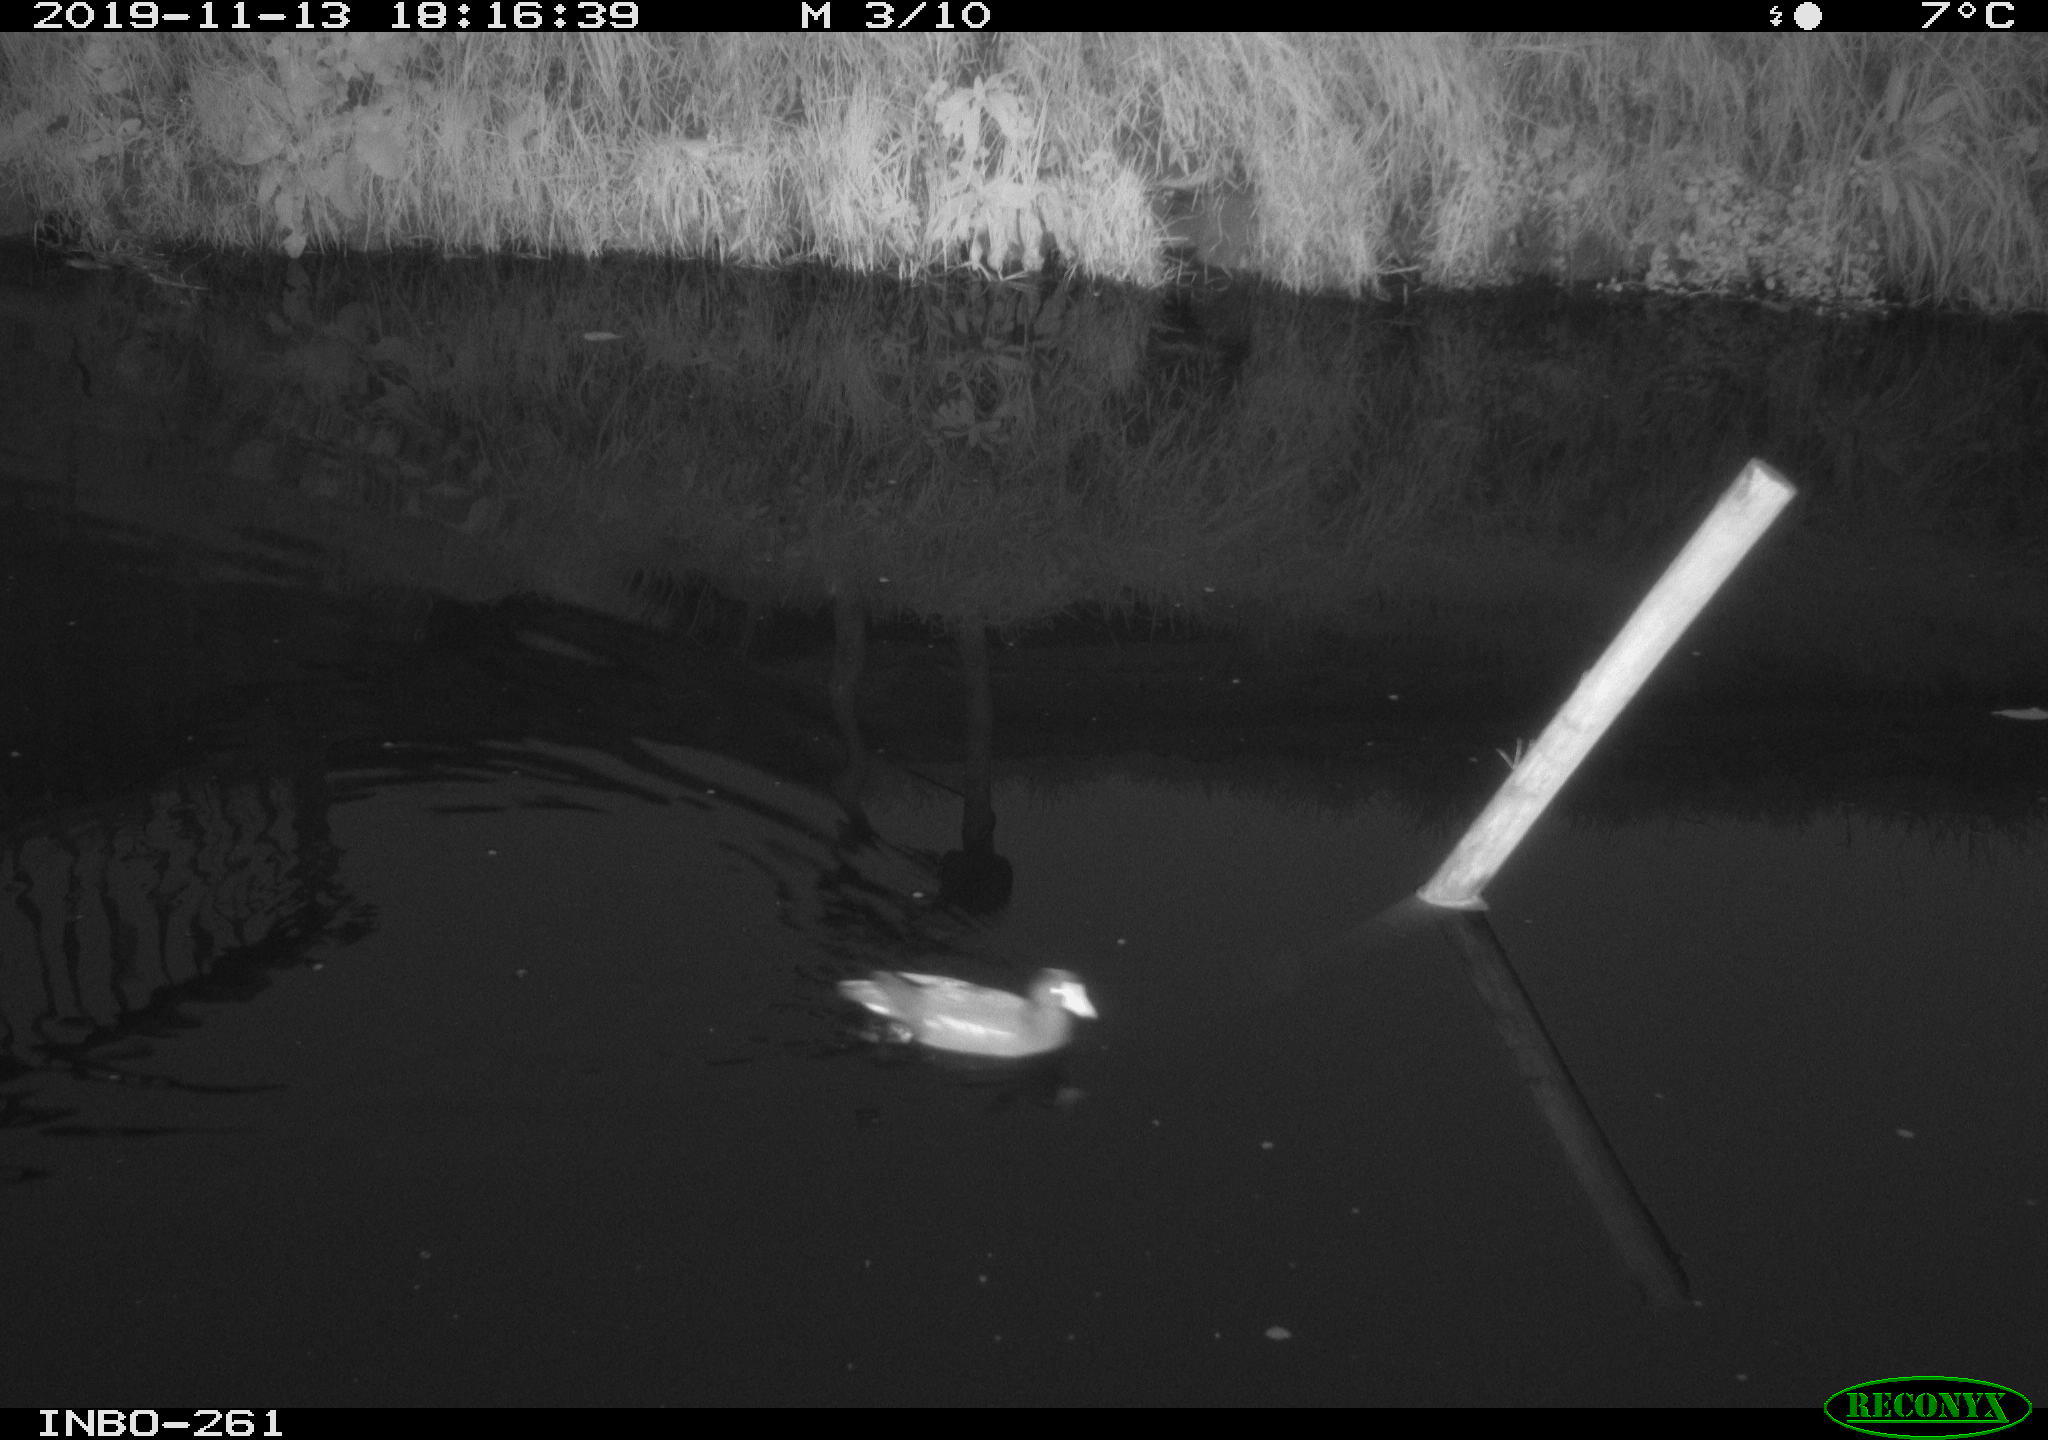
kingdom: Animalia
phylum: Chordata
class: Aves
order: Gruiformes
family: Rallidae
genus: Gallinula
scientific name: Gallinula chloropus
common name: Common moorhen
